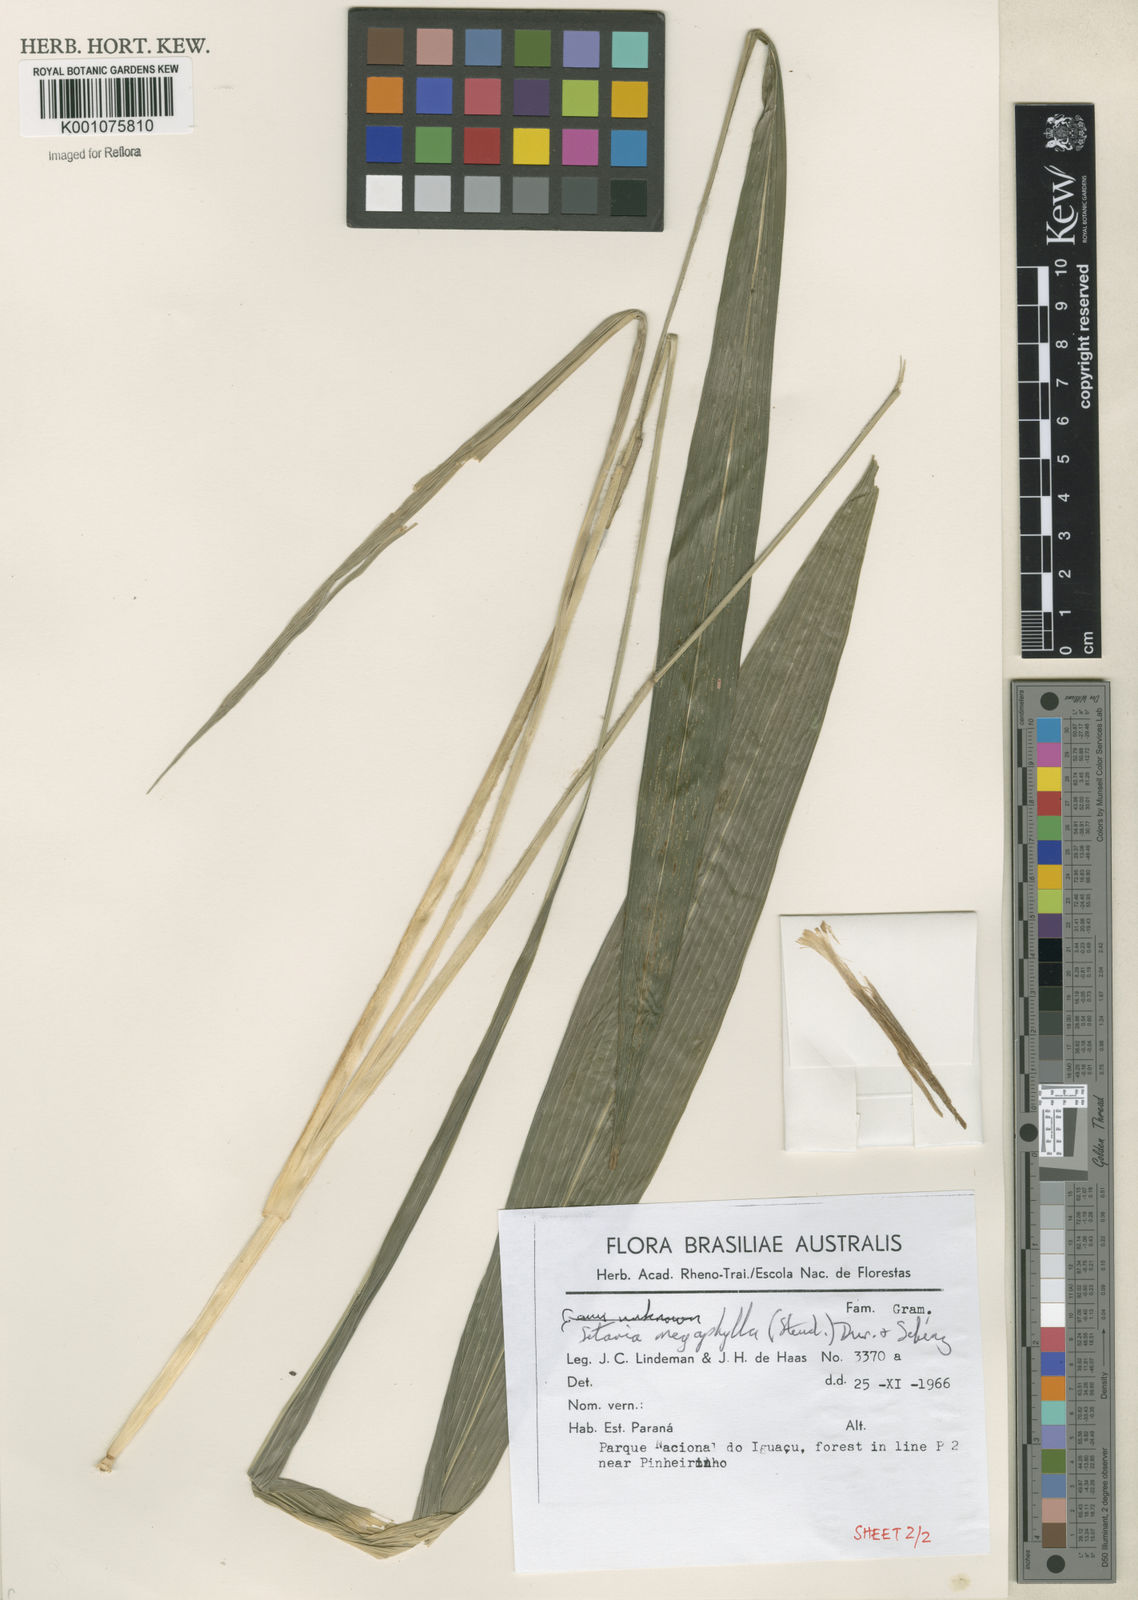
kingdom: Plantae
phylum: Tracheophyta
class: Liliopsida
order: Poales
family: Poaceae
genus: Setaria
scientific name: Setaria megaphylla
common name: Bigleaf bristlegrass
